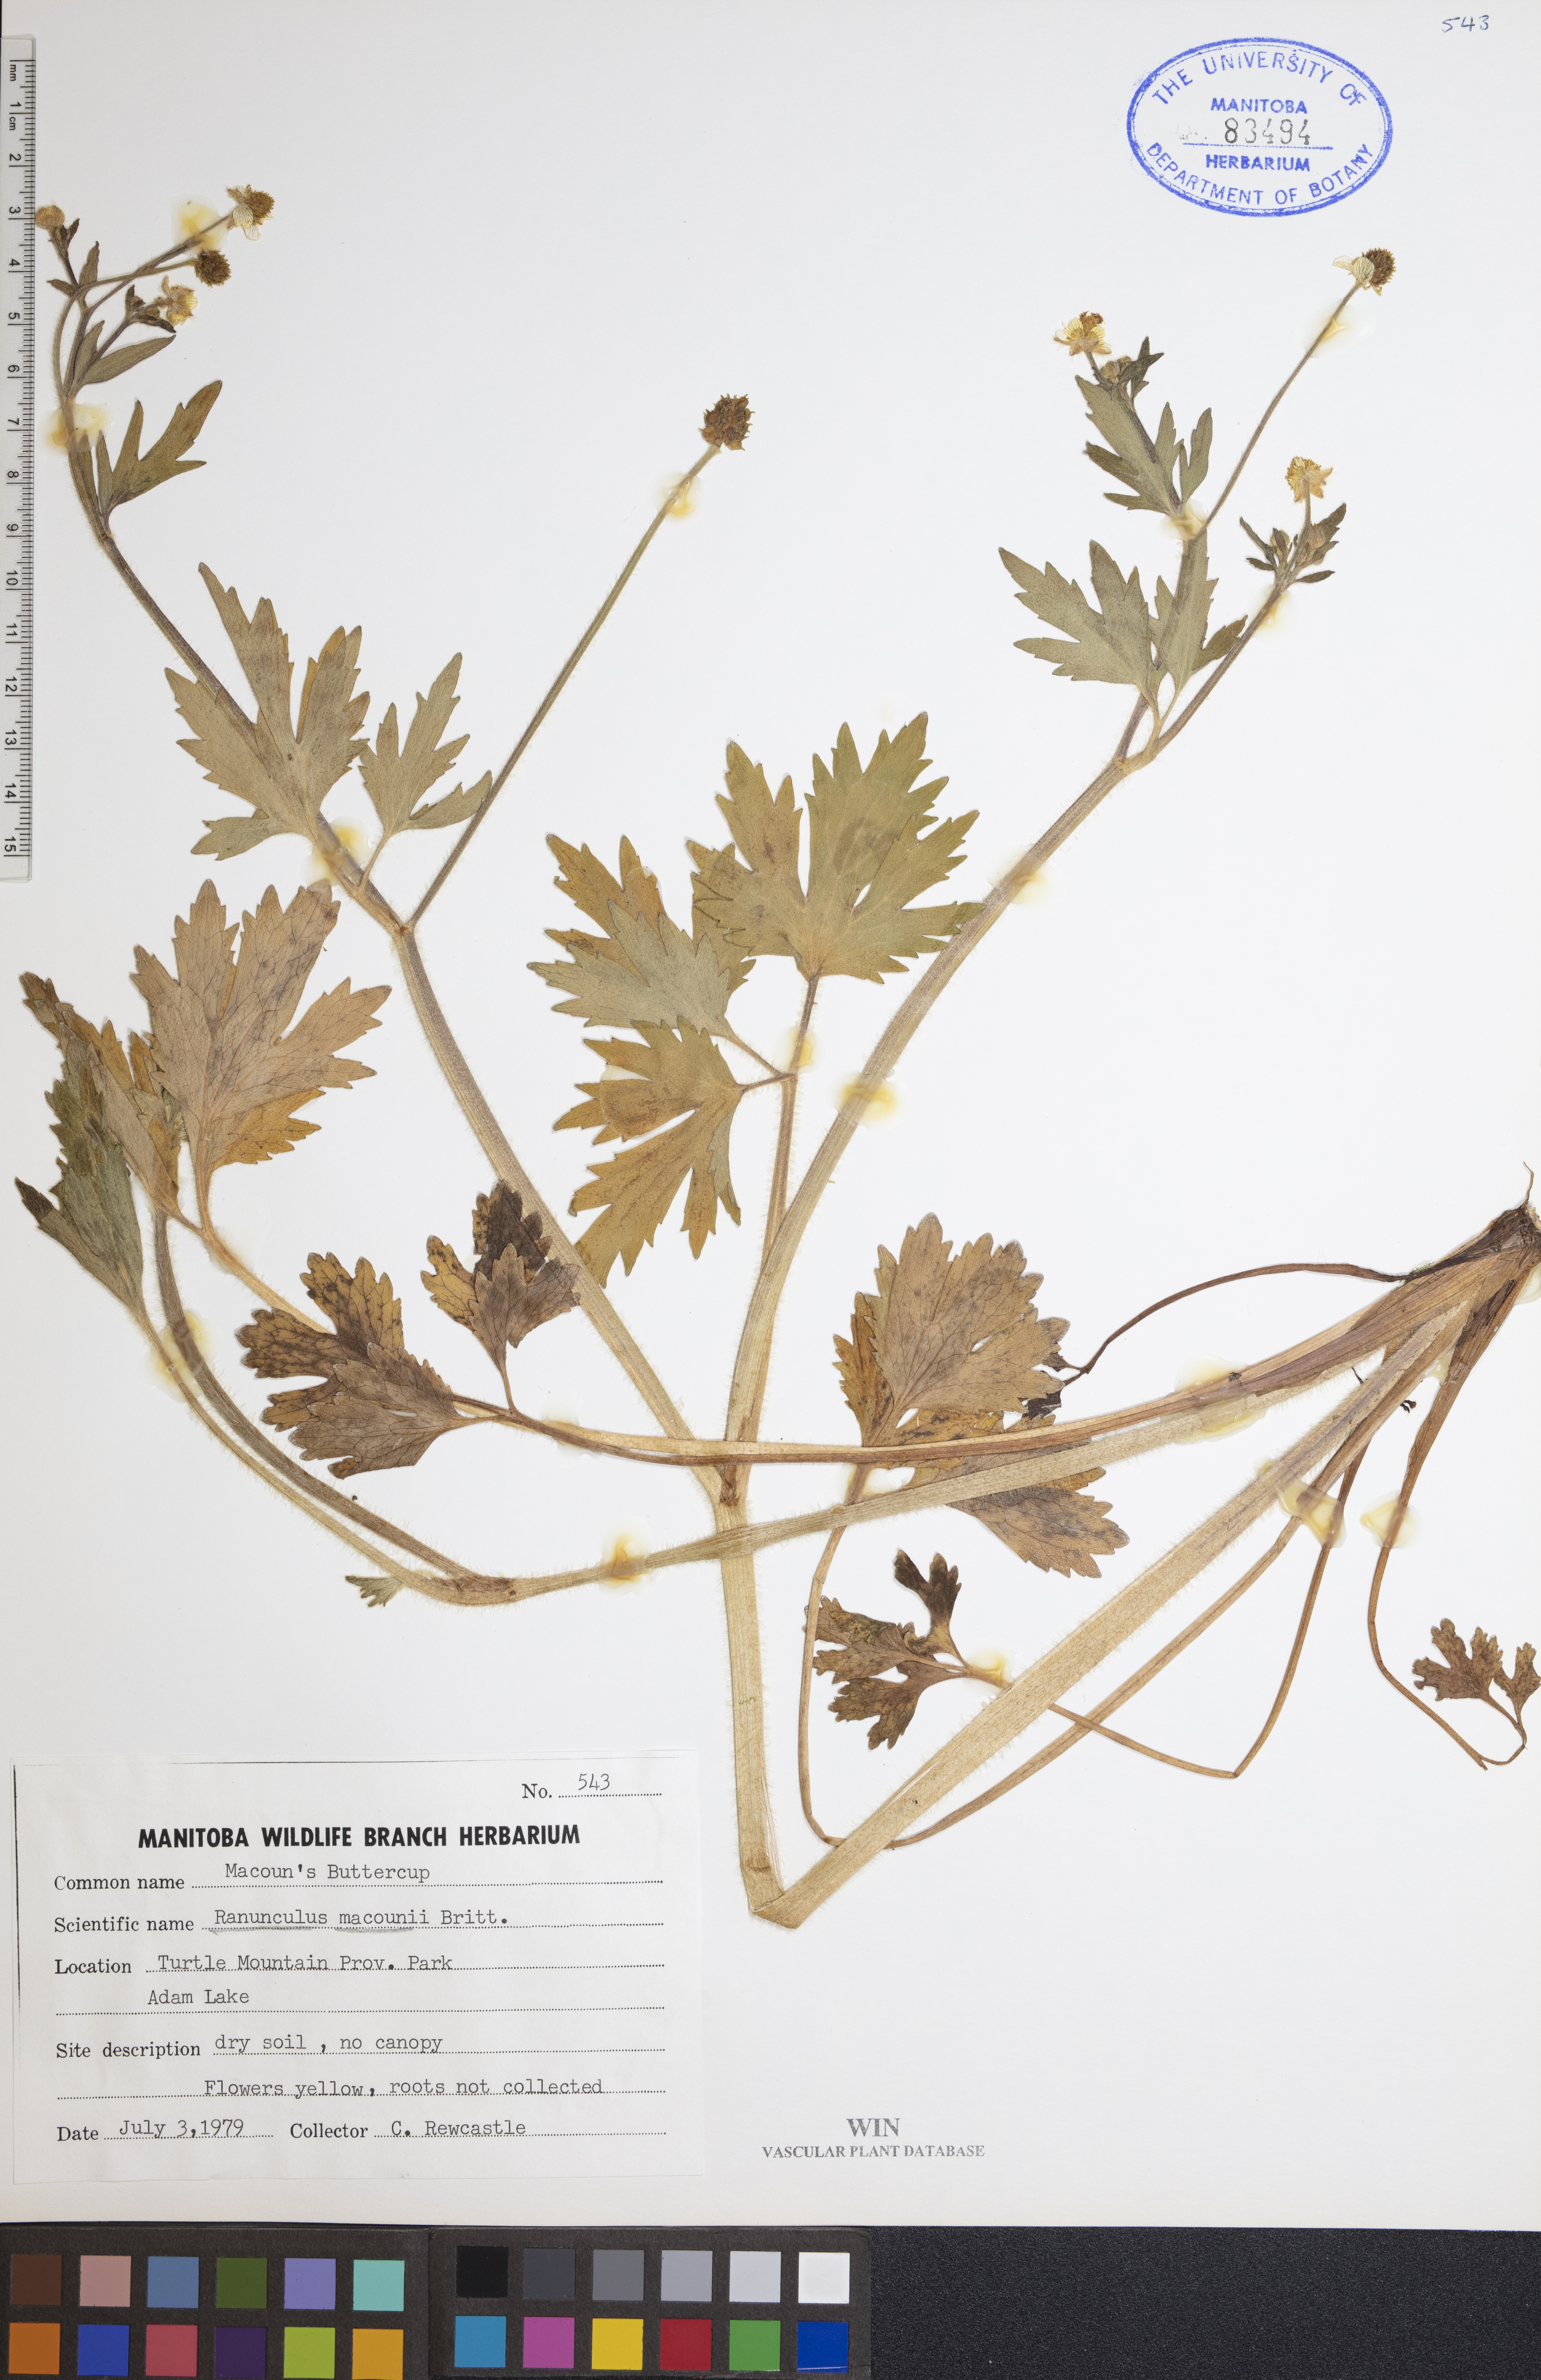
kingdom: Plantae
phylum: Tracheophyta
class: Magnoliopsida
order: Ranunculales
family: Ranunculaceae
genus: Ranunculus
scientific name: Ranunculus macounii
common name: Macoun's buttercup
